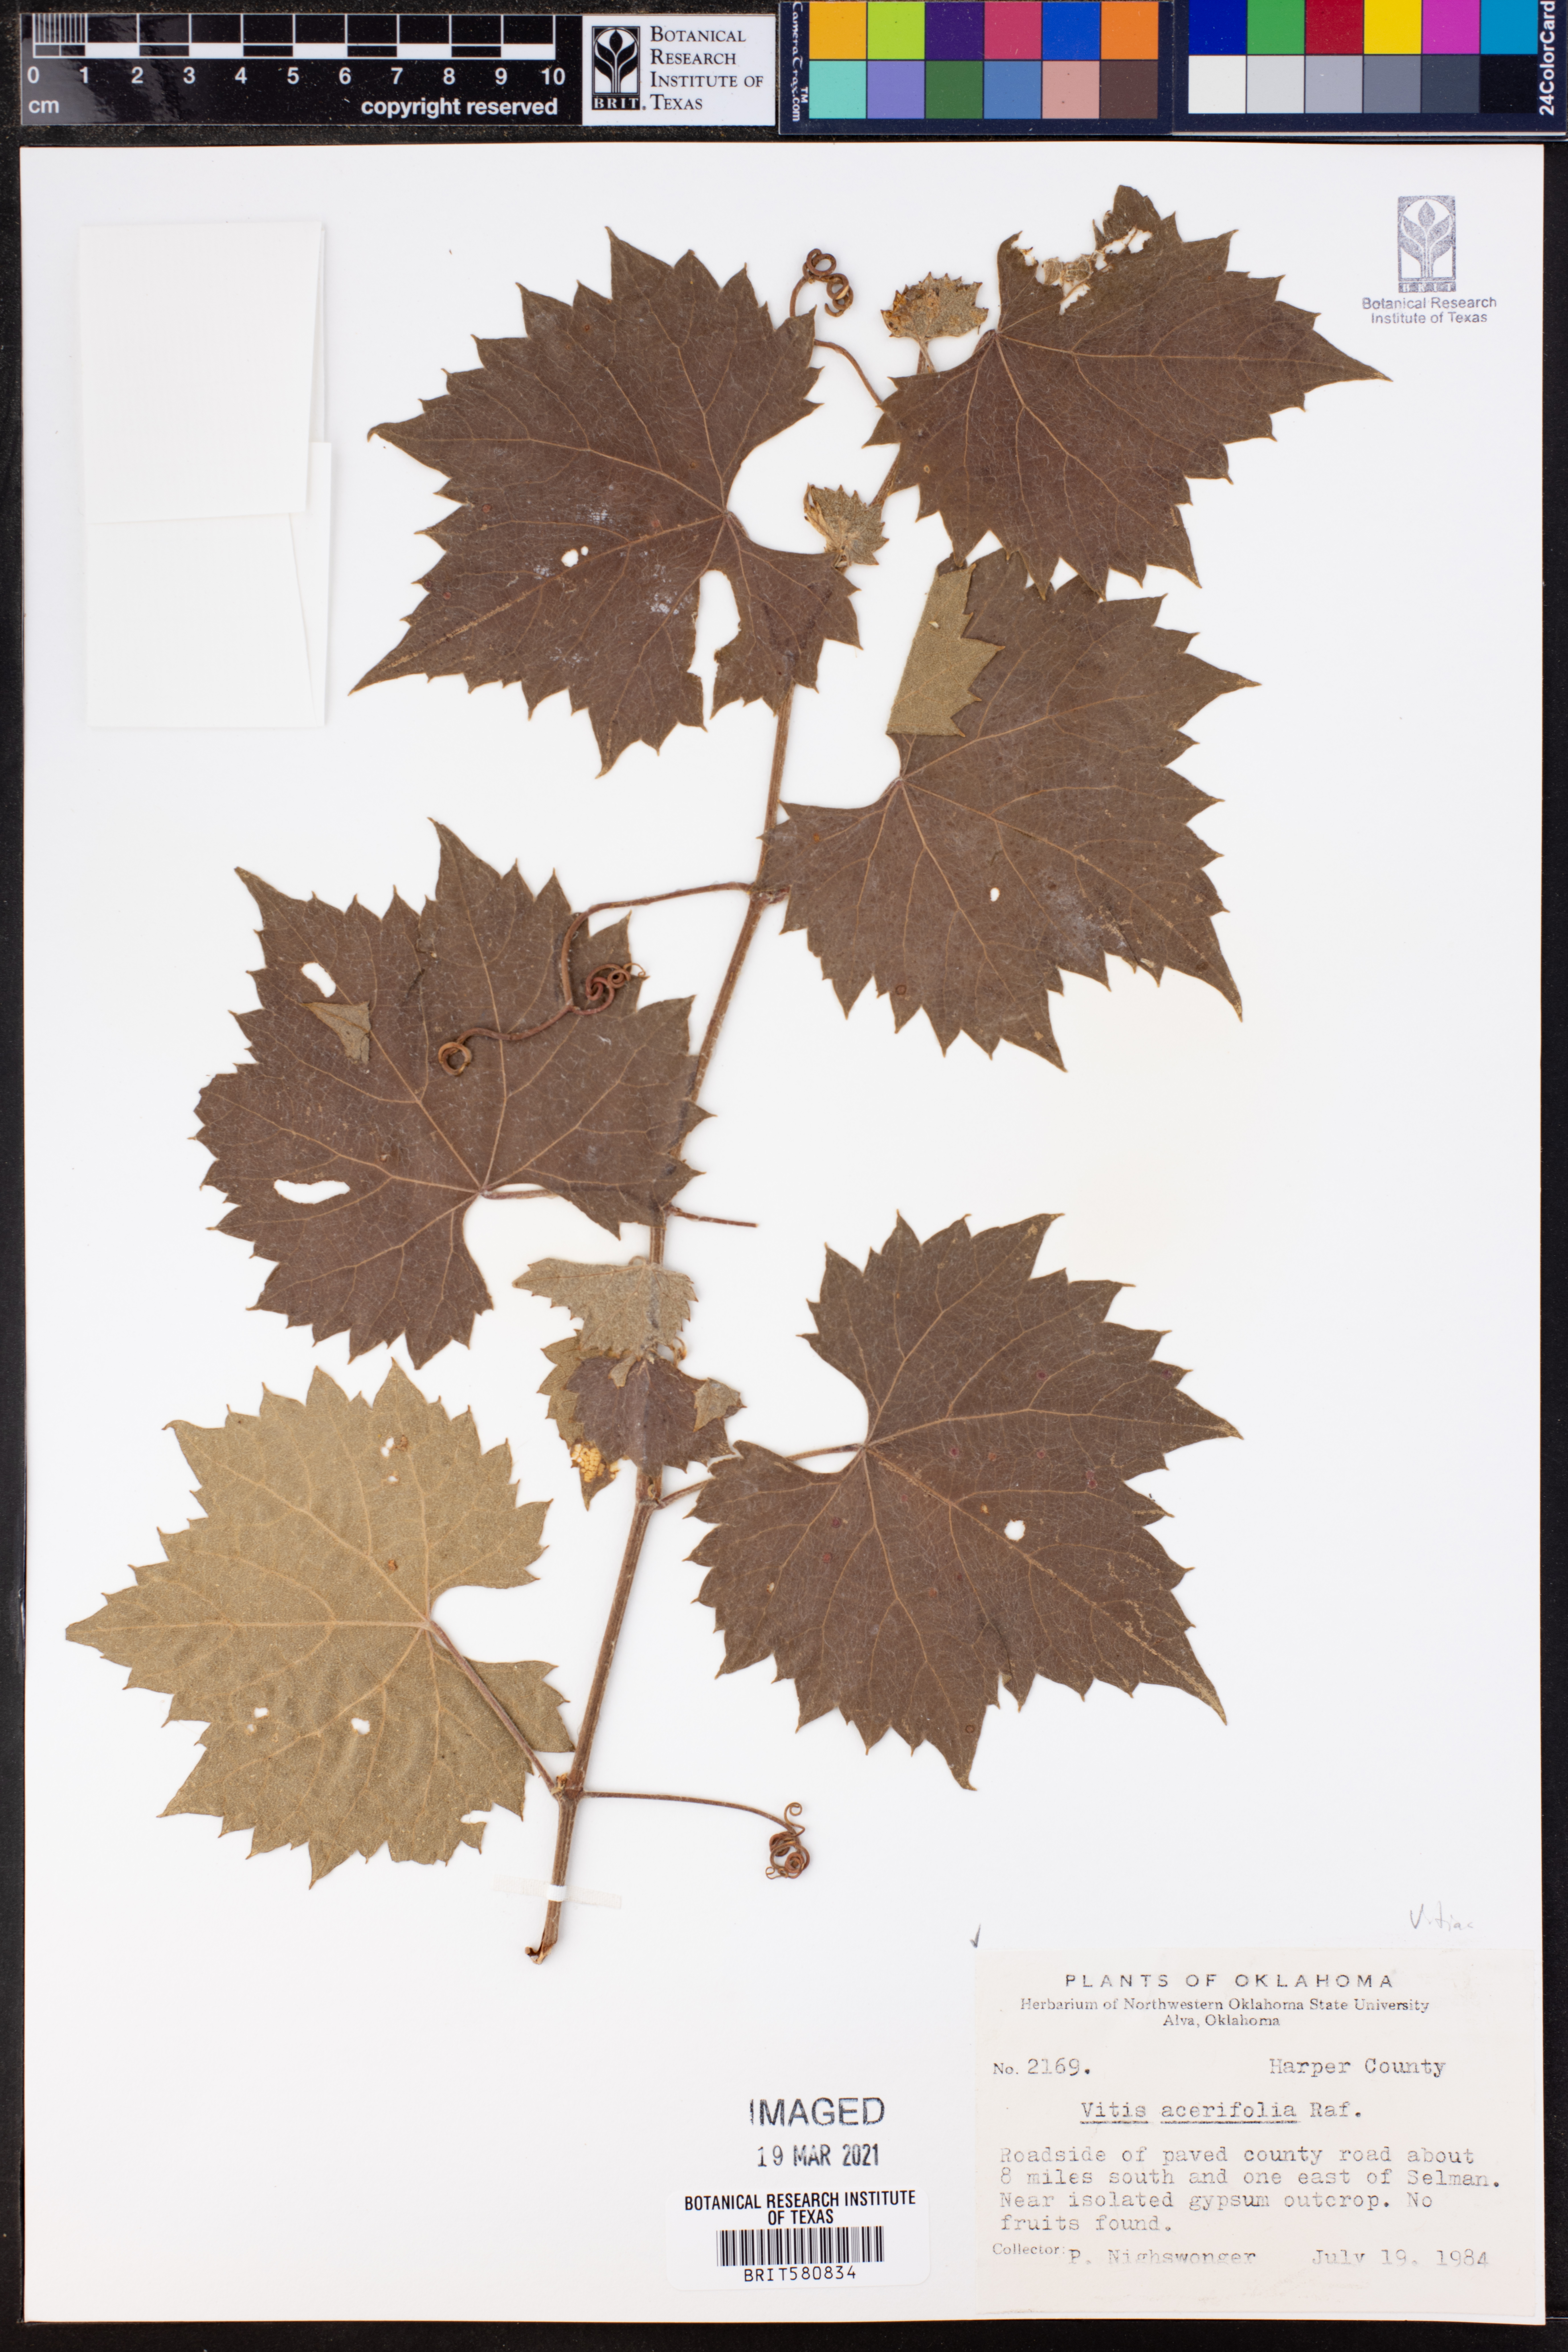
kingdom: Plantae
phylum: Tracheophyta
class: Magnoliopsida
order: Vitales
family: Vitaceae
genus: Vitis
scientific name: Vitis acerifolia
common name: Bush grape
